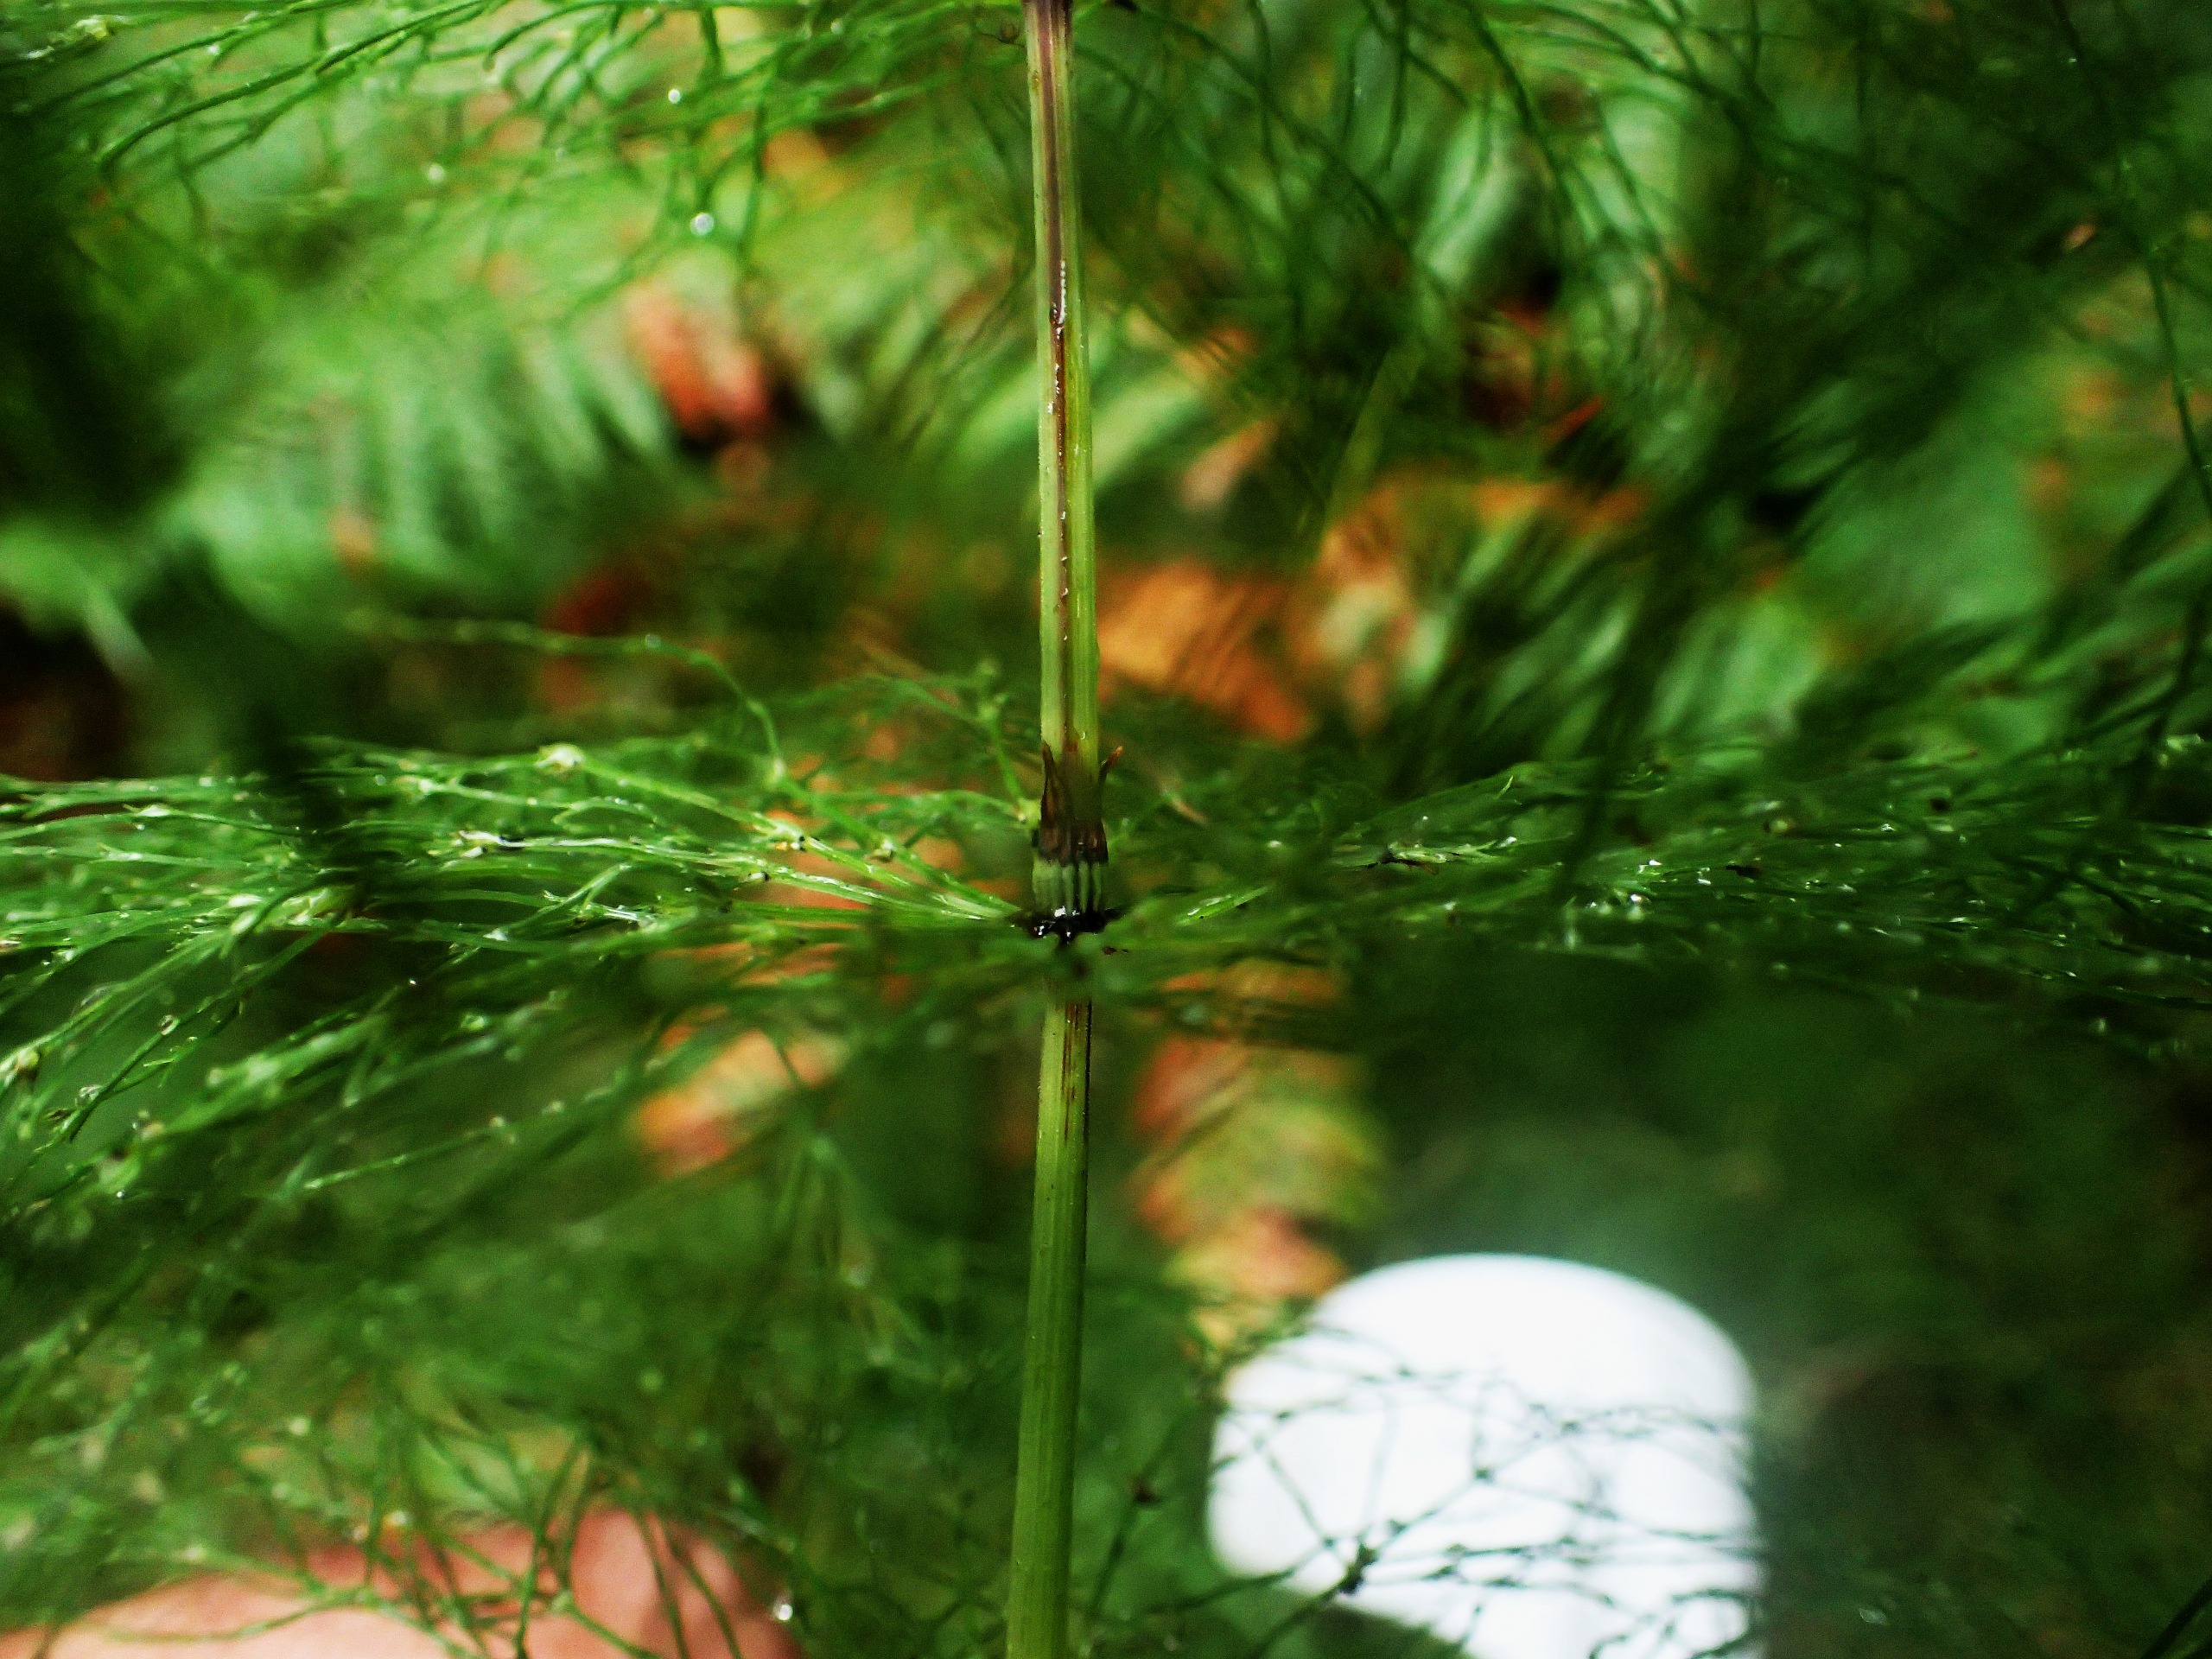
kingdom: Plantae
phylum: Tracheophyta
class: Polypodiopsida
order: Equisetales
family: Equisetaceae
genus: Equisetum
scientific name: Equisetum sylvaticum
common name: Skov-padderok
